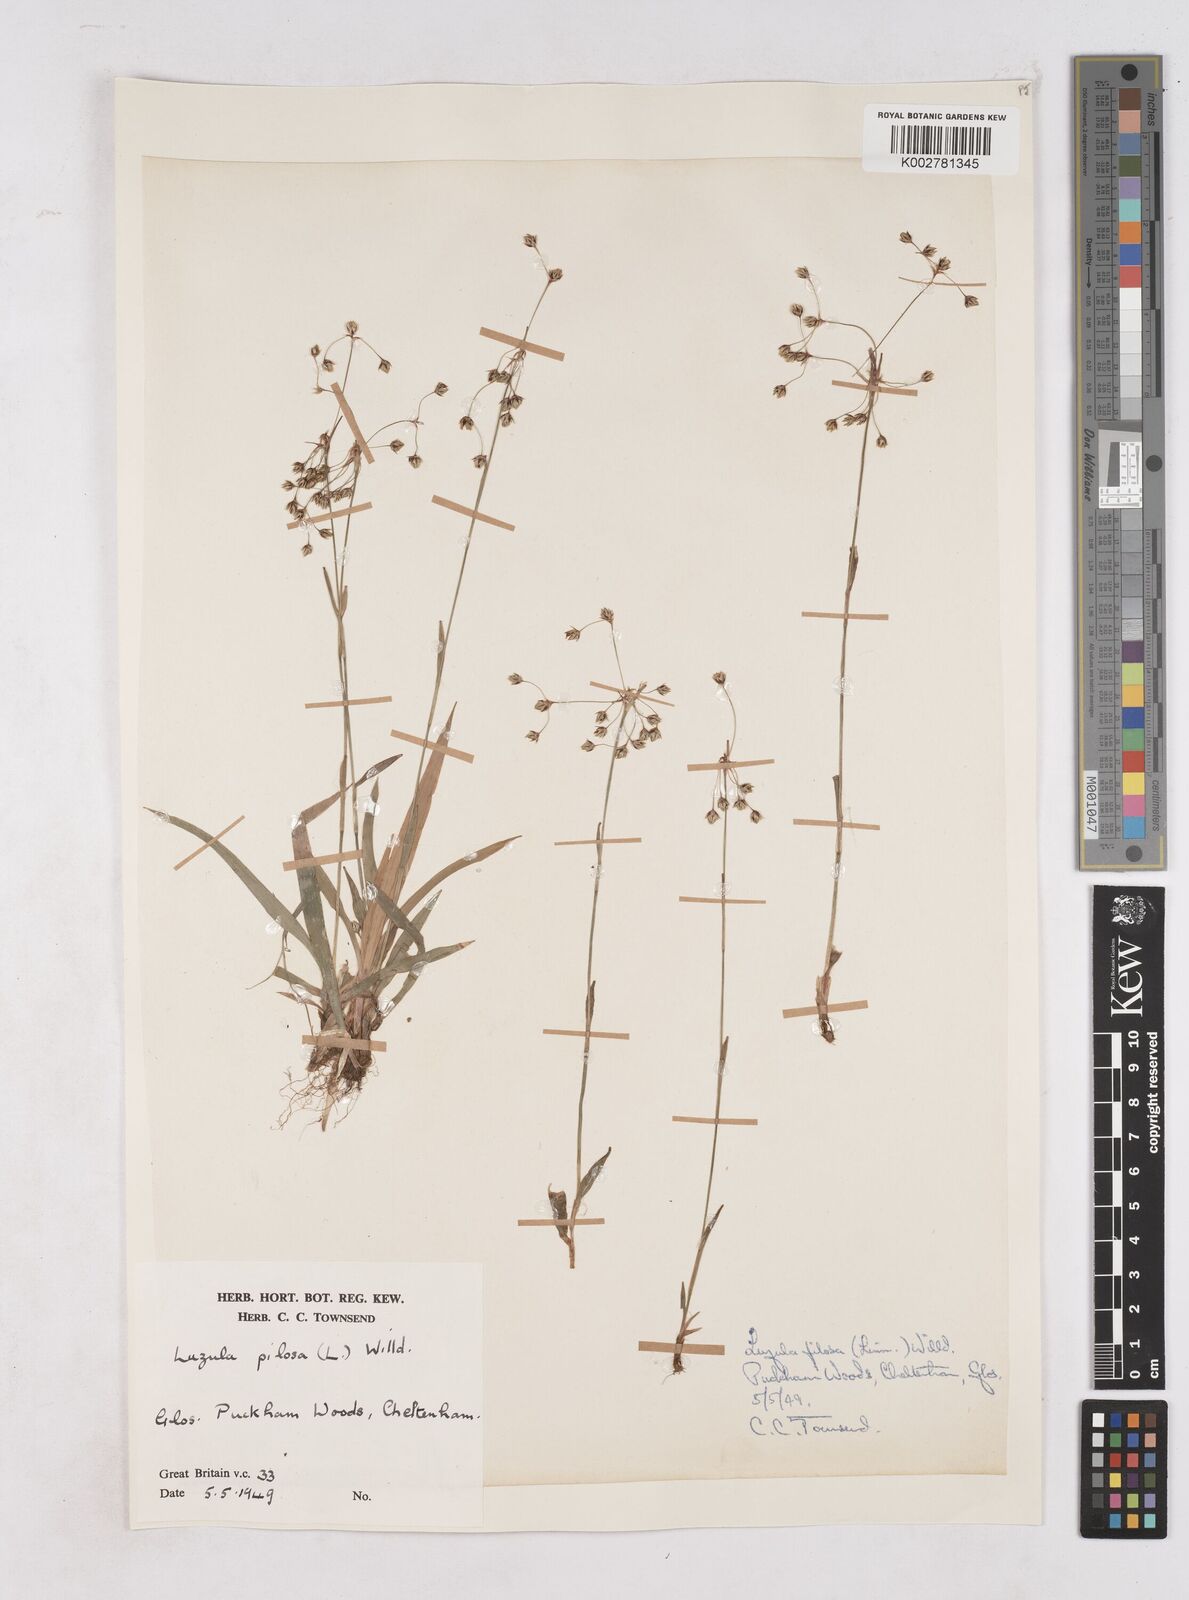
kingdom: Plantae
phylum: Tracheophyta
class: Liliopsida
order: Poales
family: Juncaceae
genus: Luzula
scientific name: Luzula pilosa
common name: Hairy wood-rush
